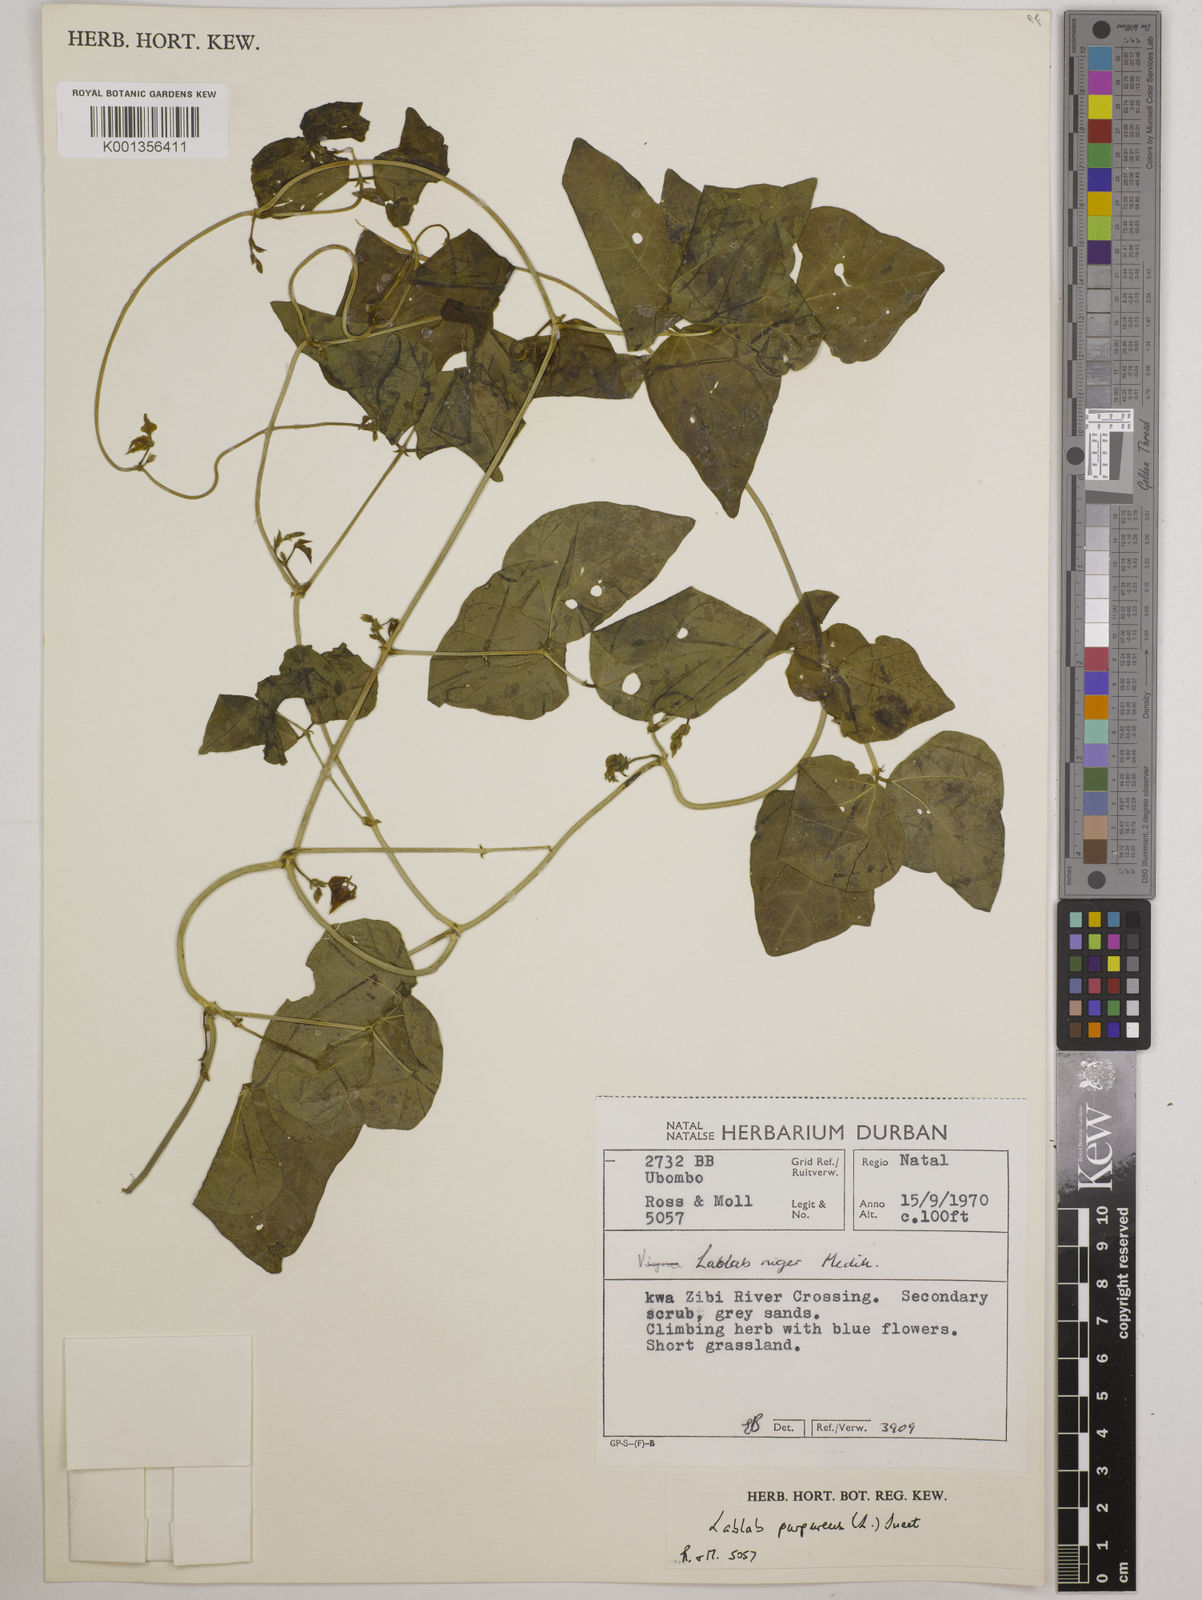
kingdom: Plantae
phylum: Tracheophyta
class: Magnoliopsida
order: Fabales
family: Fabaceae
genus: Lablab
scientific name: Lablab purpureus
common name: Lablab-bean
